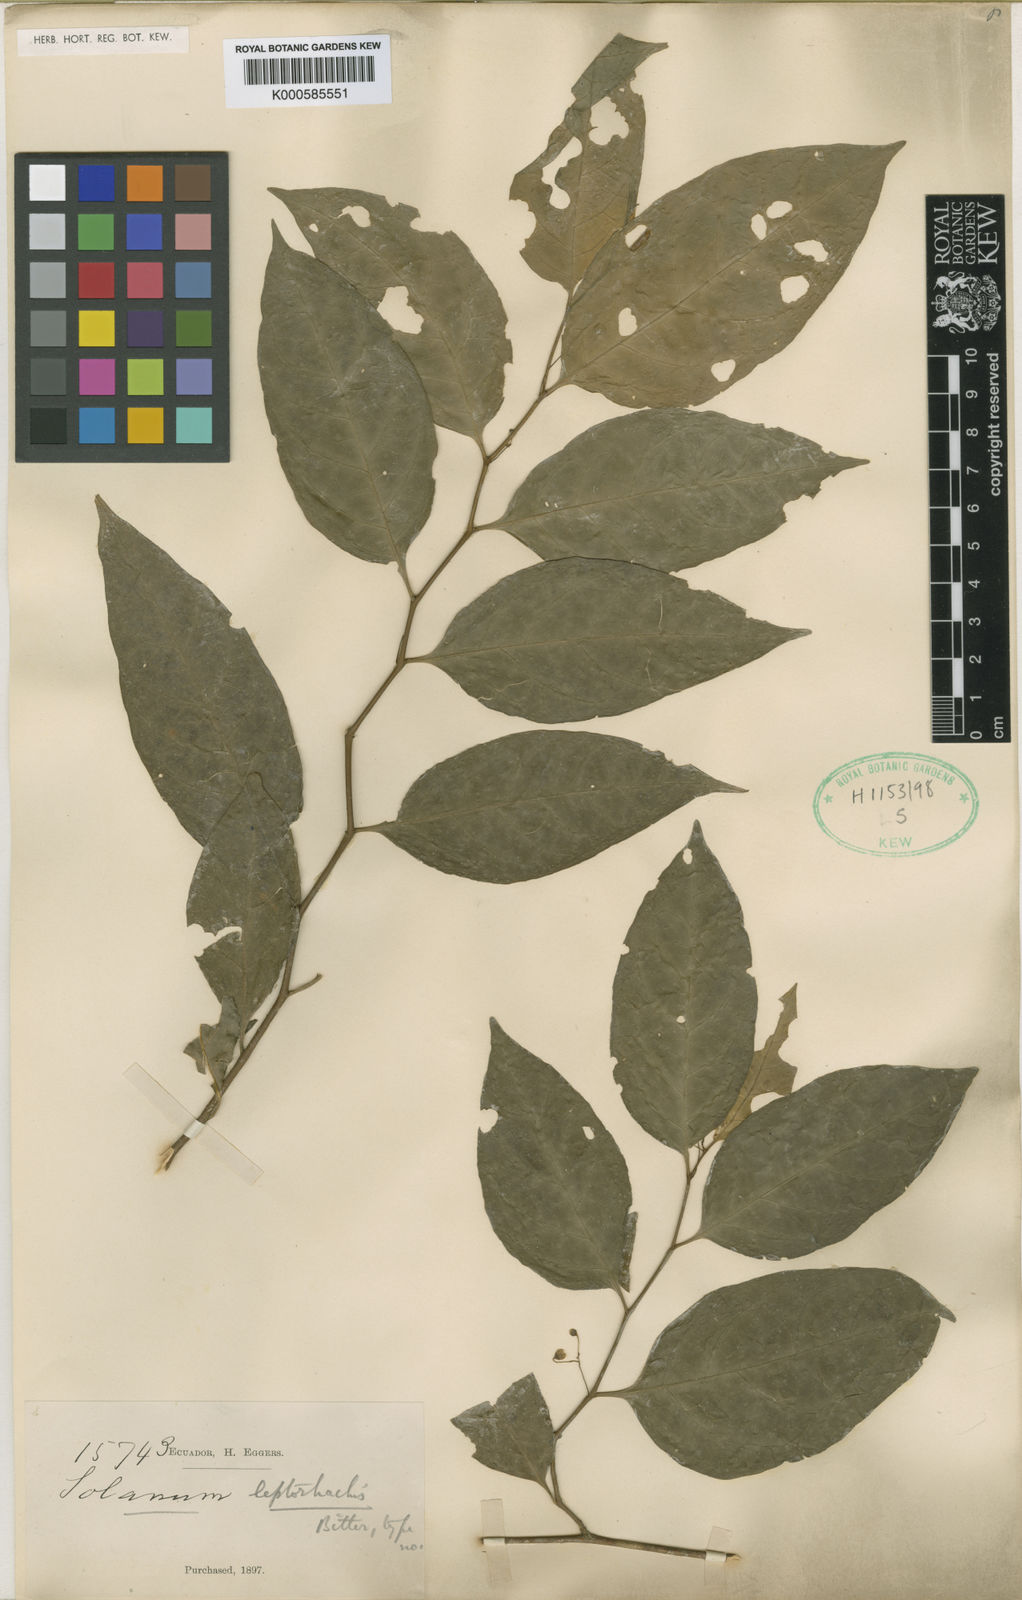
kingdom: Plantae
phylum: Tracheophyta
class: Magnoliopsida
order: Solanales
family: Solanaceae
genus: Solanum
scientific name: Solanum leptorhachis
